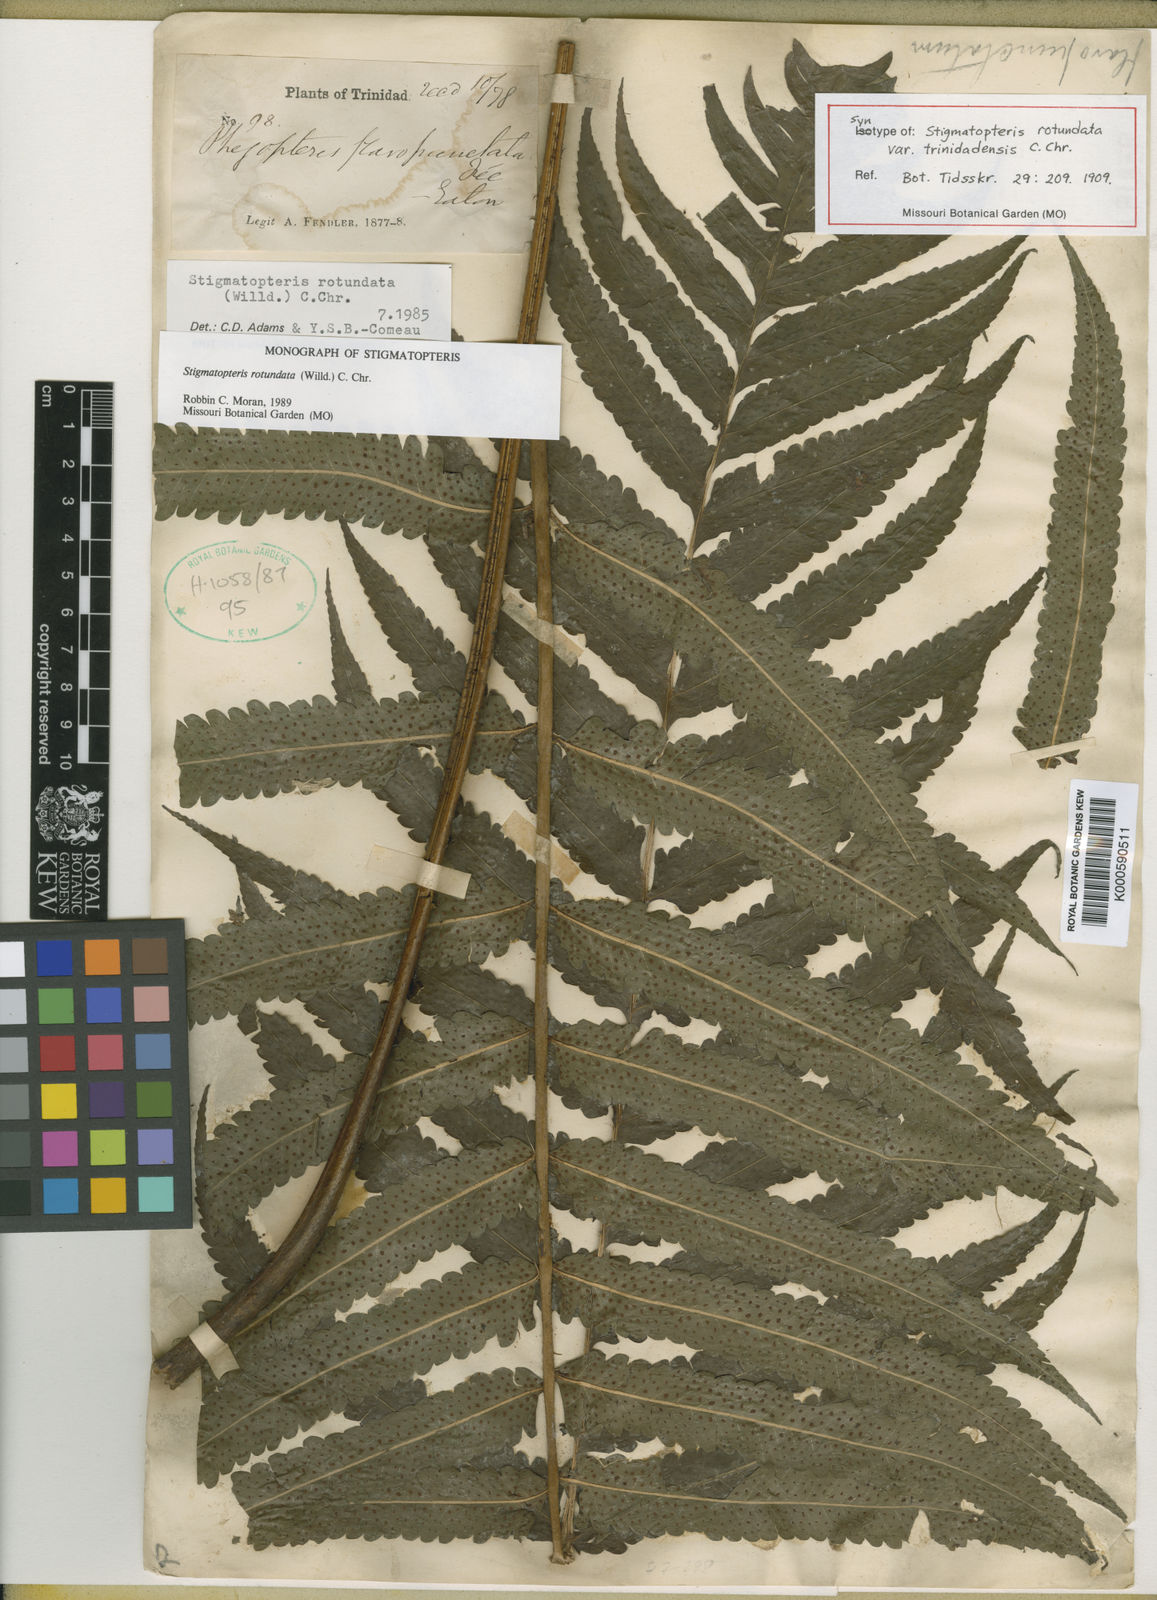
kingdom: Plantae
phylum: Tracheophyta
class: Polypodiopsida
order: Polypodiales
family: Dryopteridaceae
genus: Stigmatopteris
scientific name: Stigmatopteris rotundata
